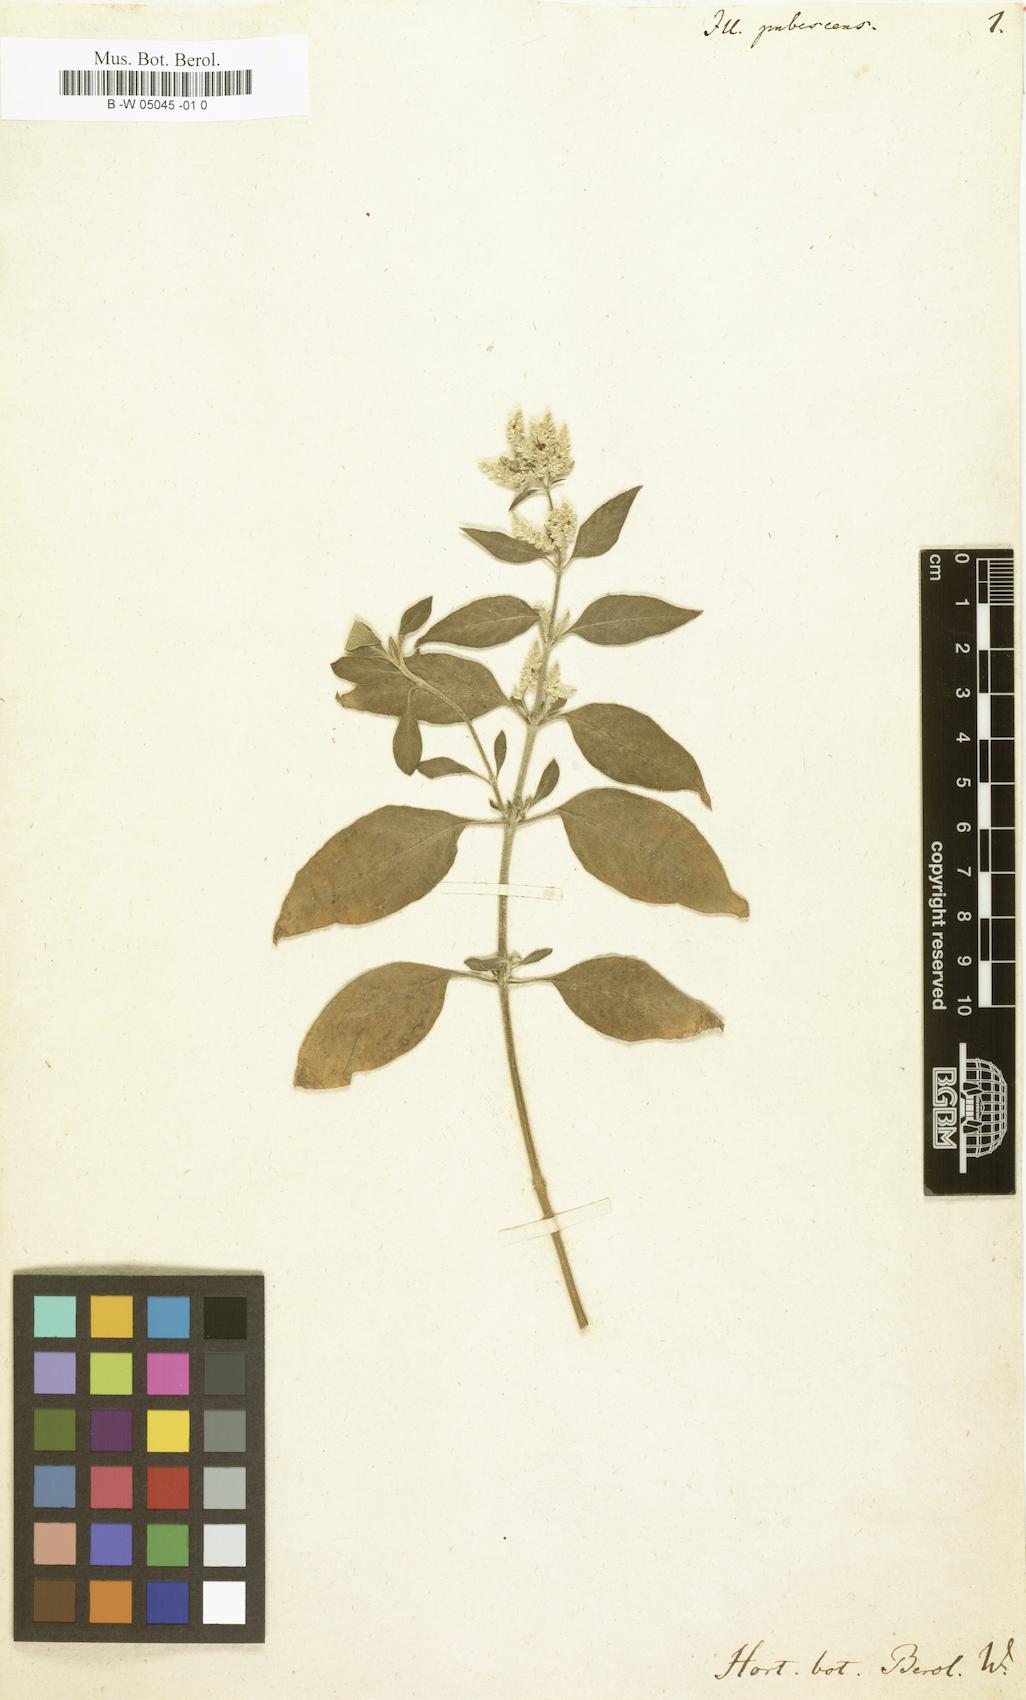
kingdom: Plantae
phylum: Tracheophyta
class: Magnoliopsida
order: Caryophyllales
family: Amaranthaceae
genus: Ouret
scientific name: Ouret lanata
